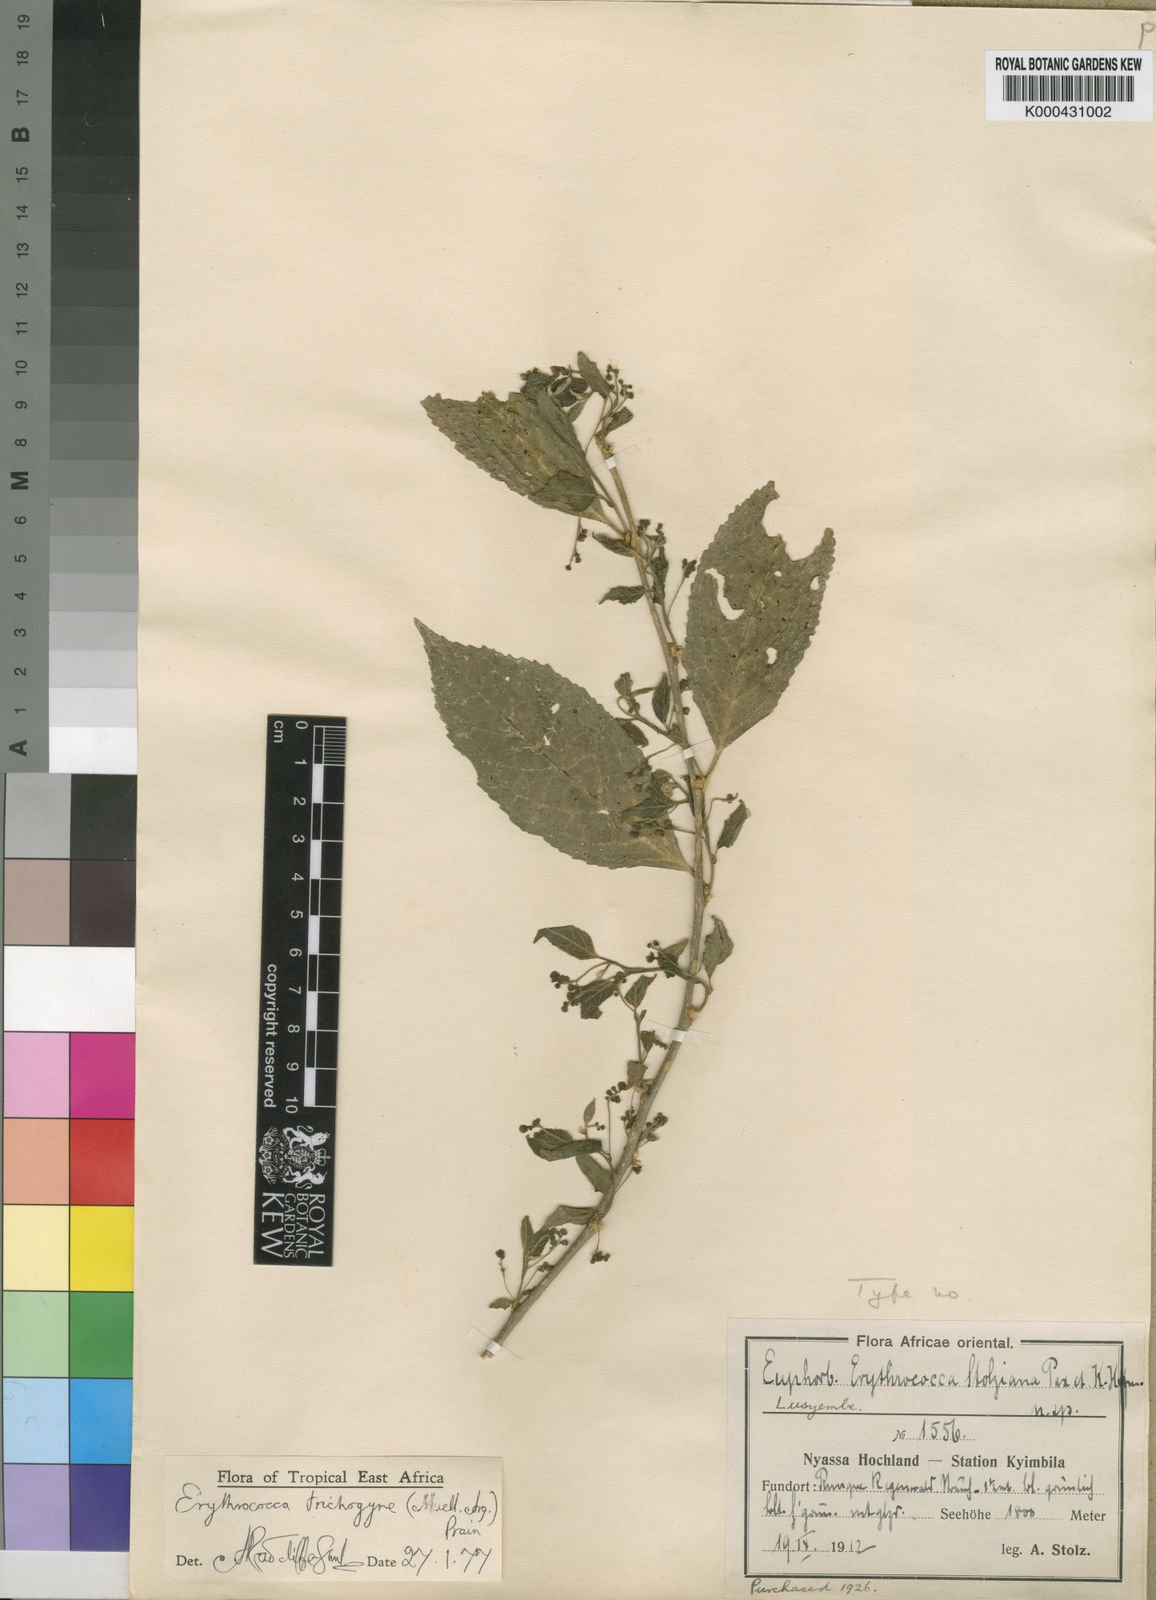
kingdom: Plantae
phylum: Tracheophyta
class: Magnoliopsida
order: Malpighiales
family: Euphorbiaceae
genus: Erythrococca
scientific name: Erythrococca
